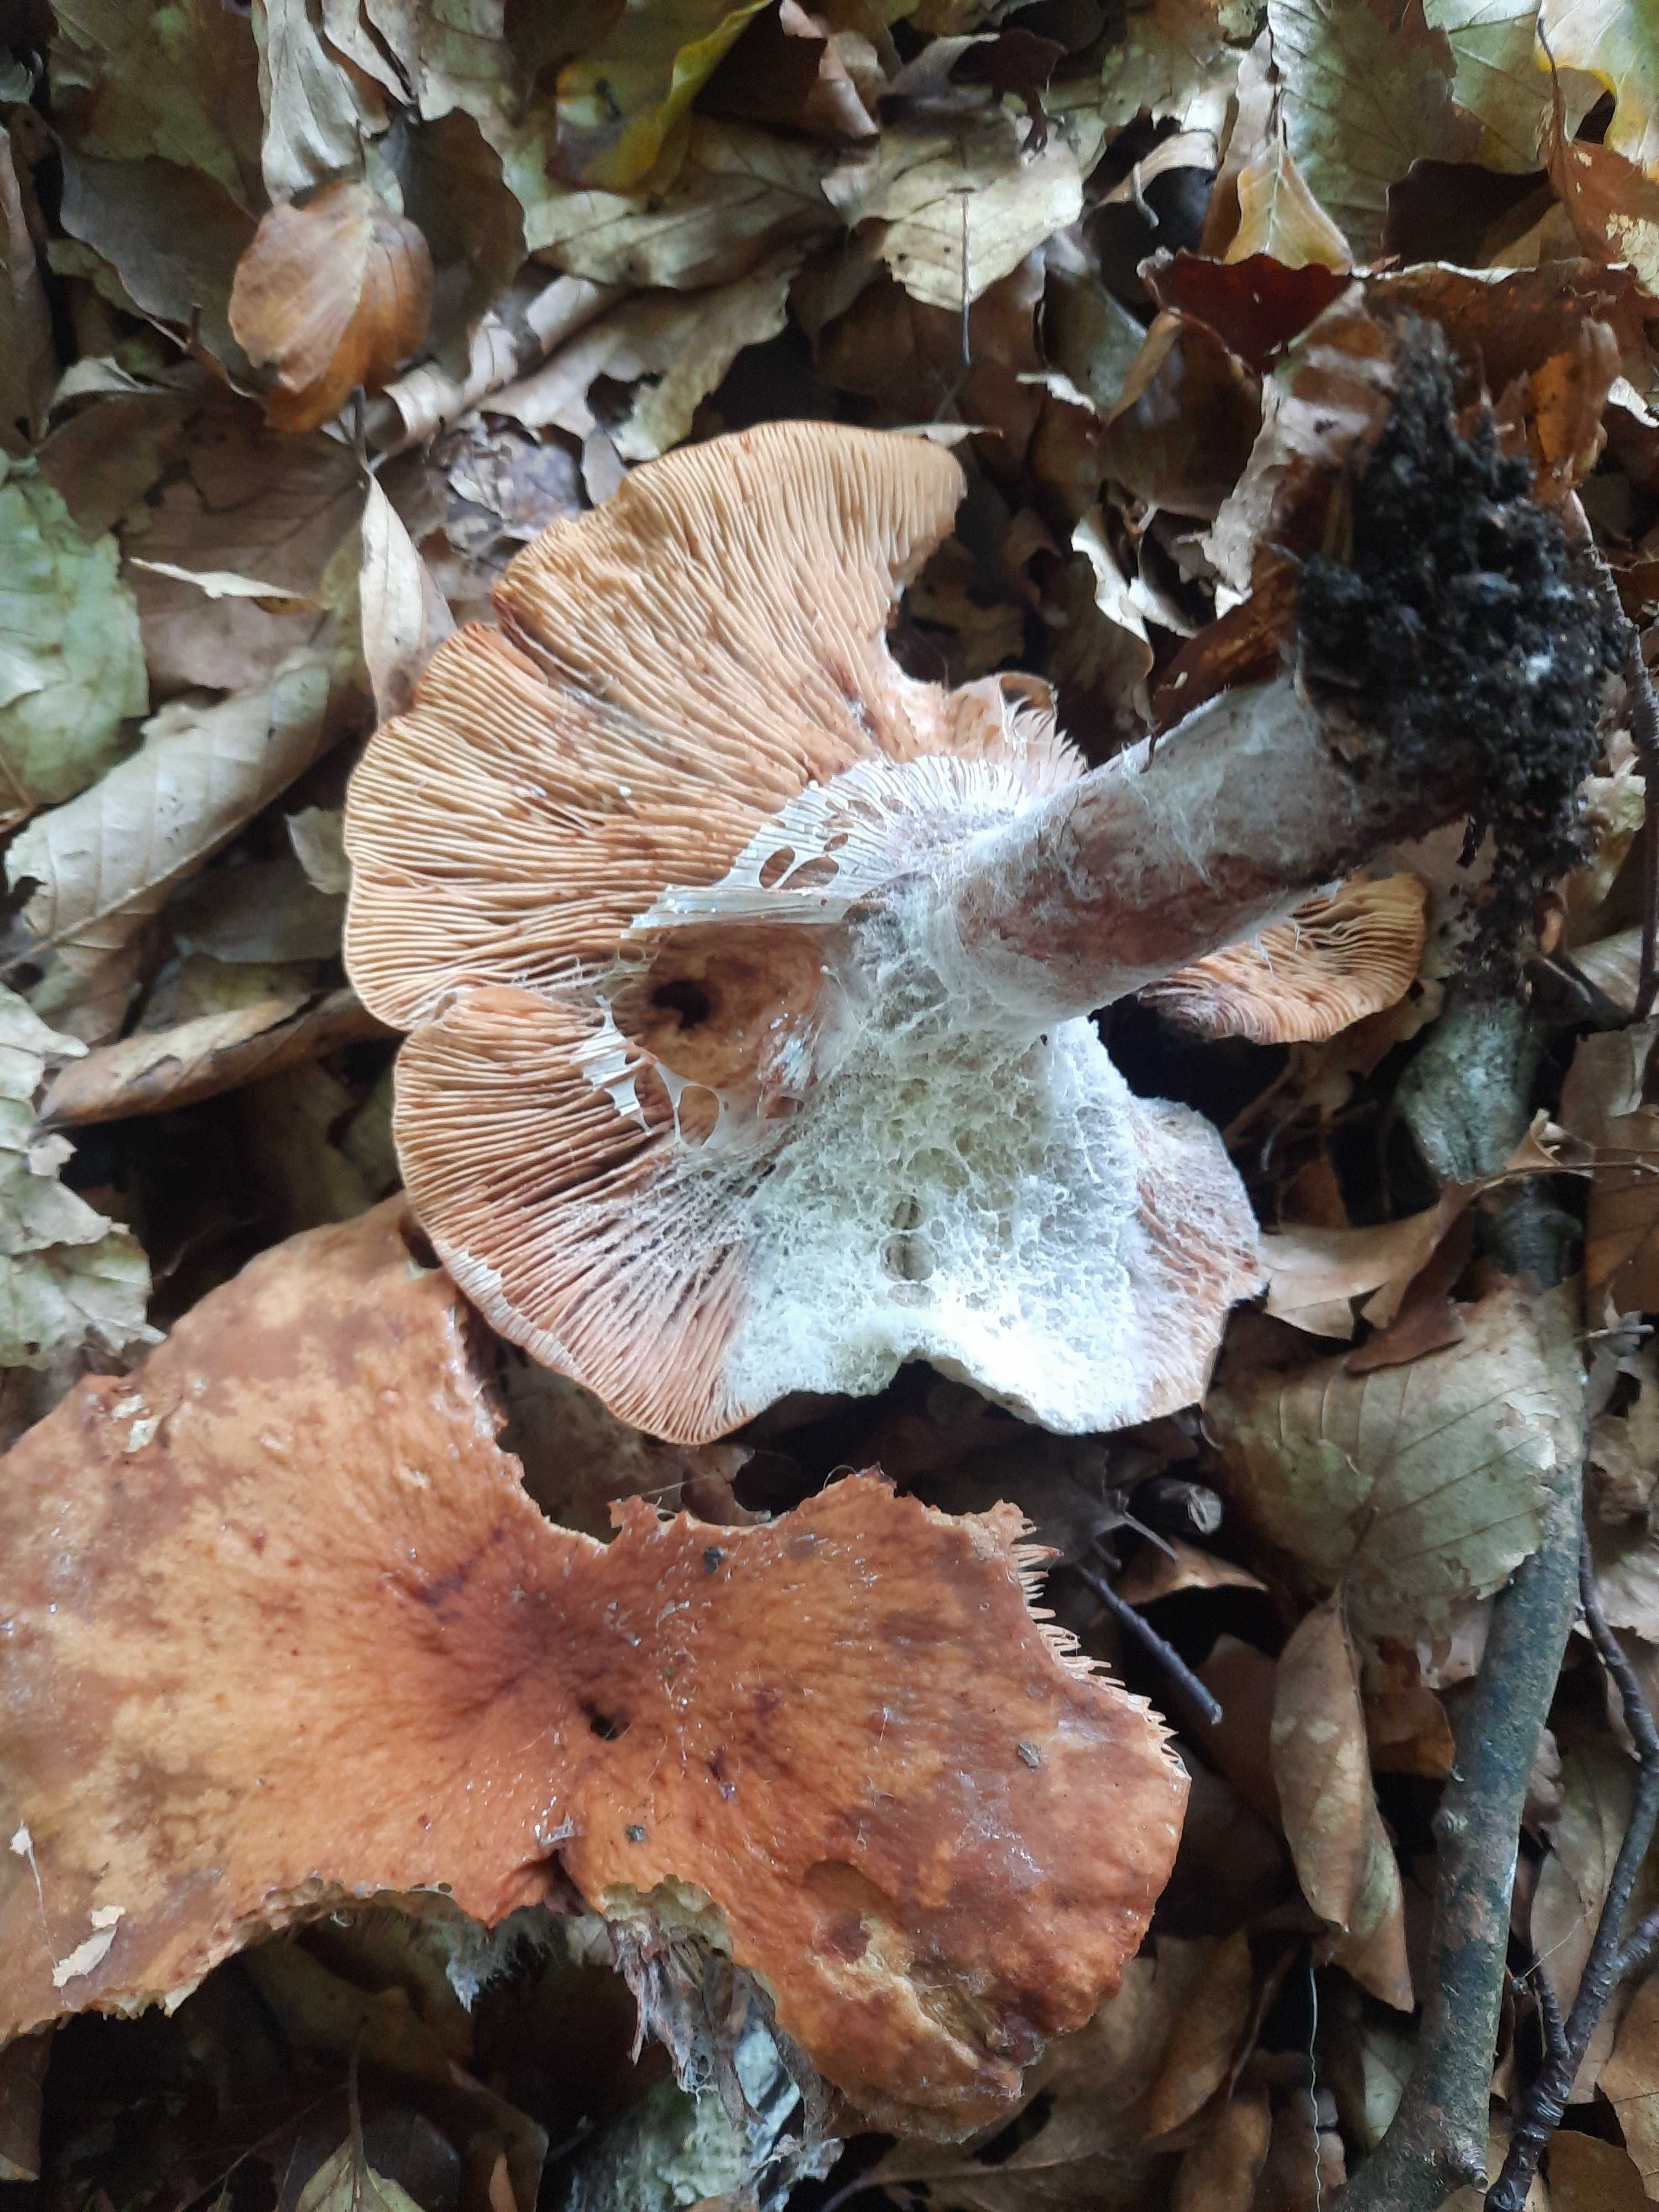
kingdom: Fungi
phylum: Basidiomycota
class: Agaricomycetes
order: Russulales
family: Russulaceae
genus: Lactarius
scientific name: Lactarius
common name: mælkehat
